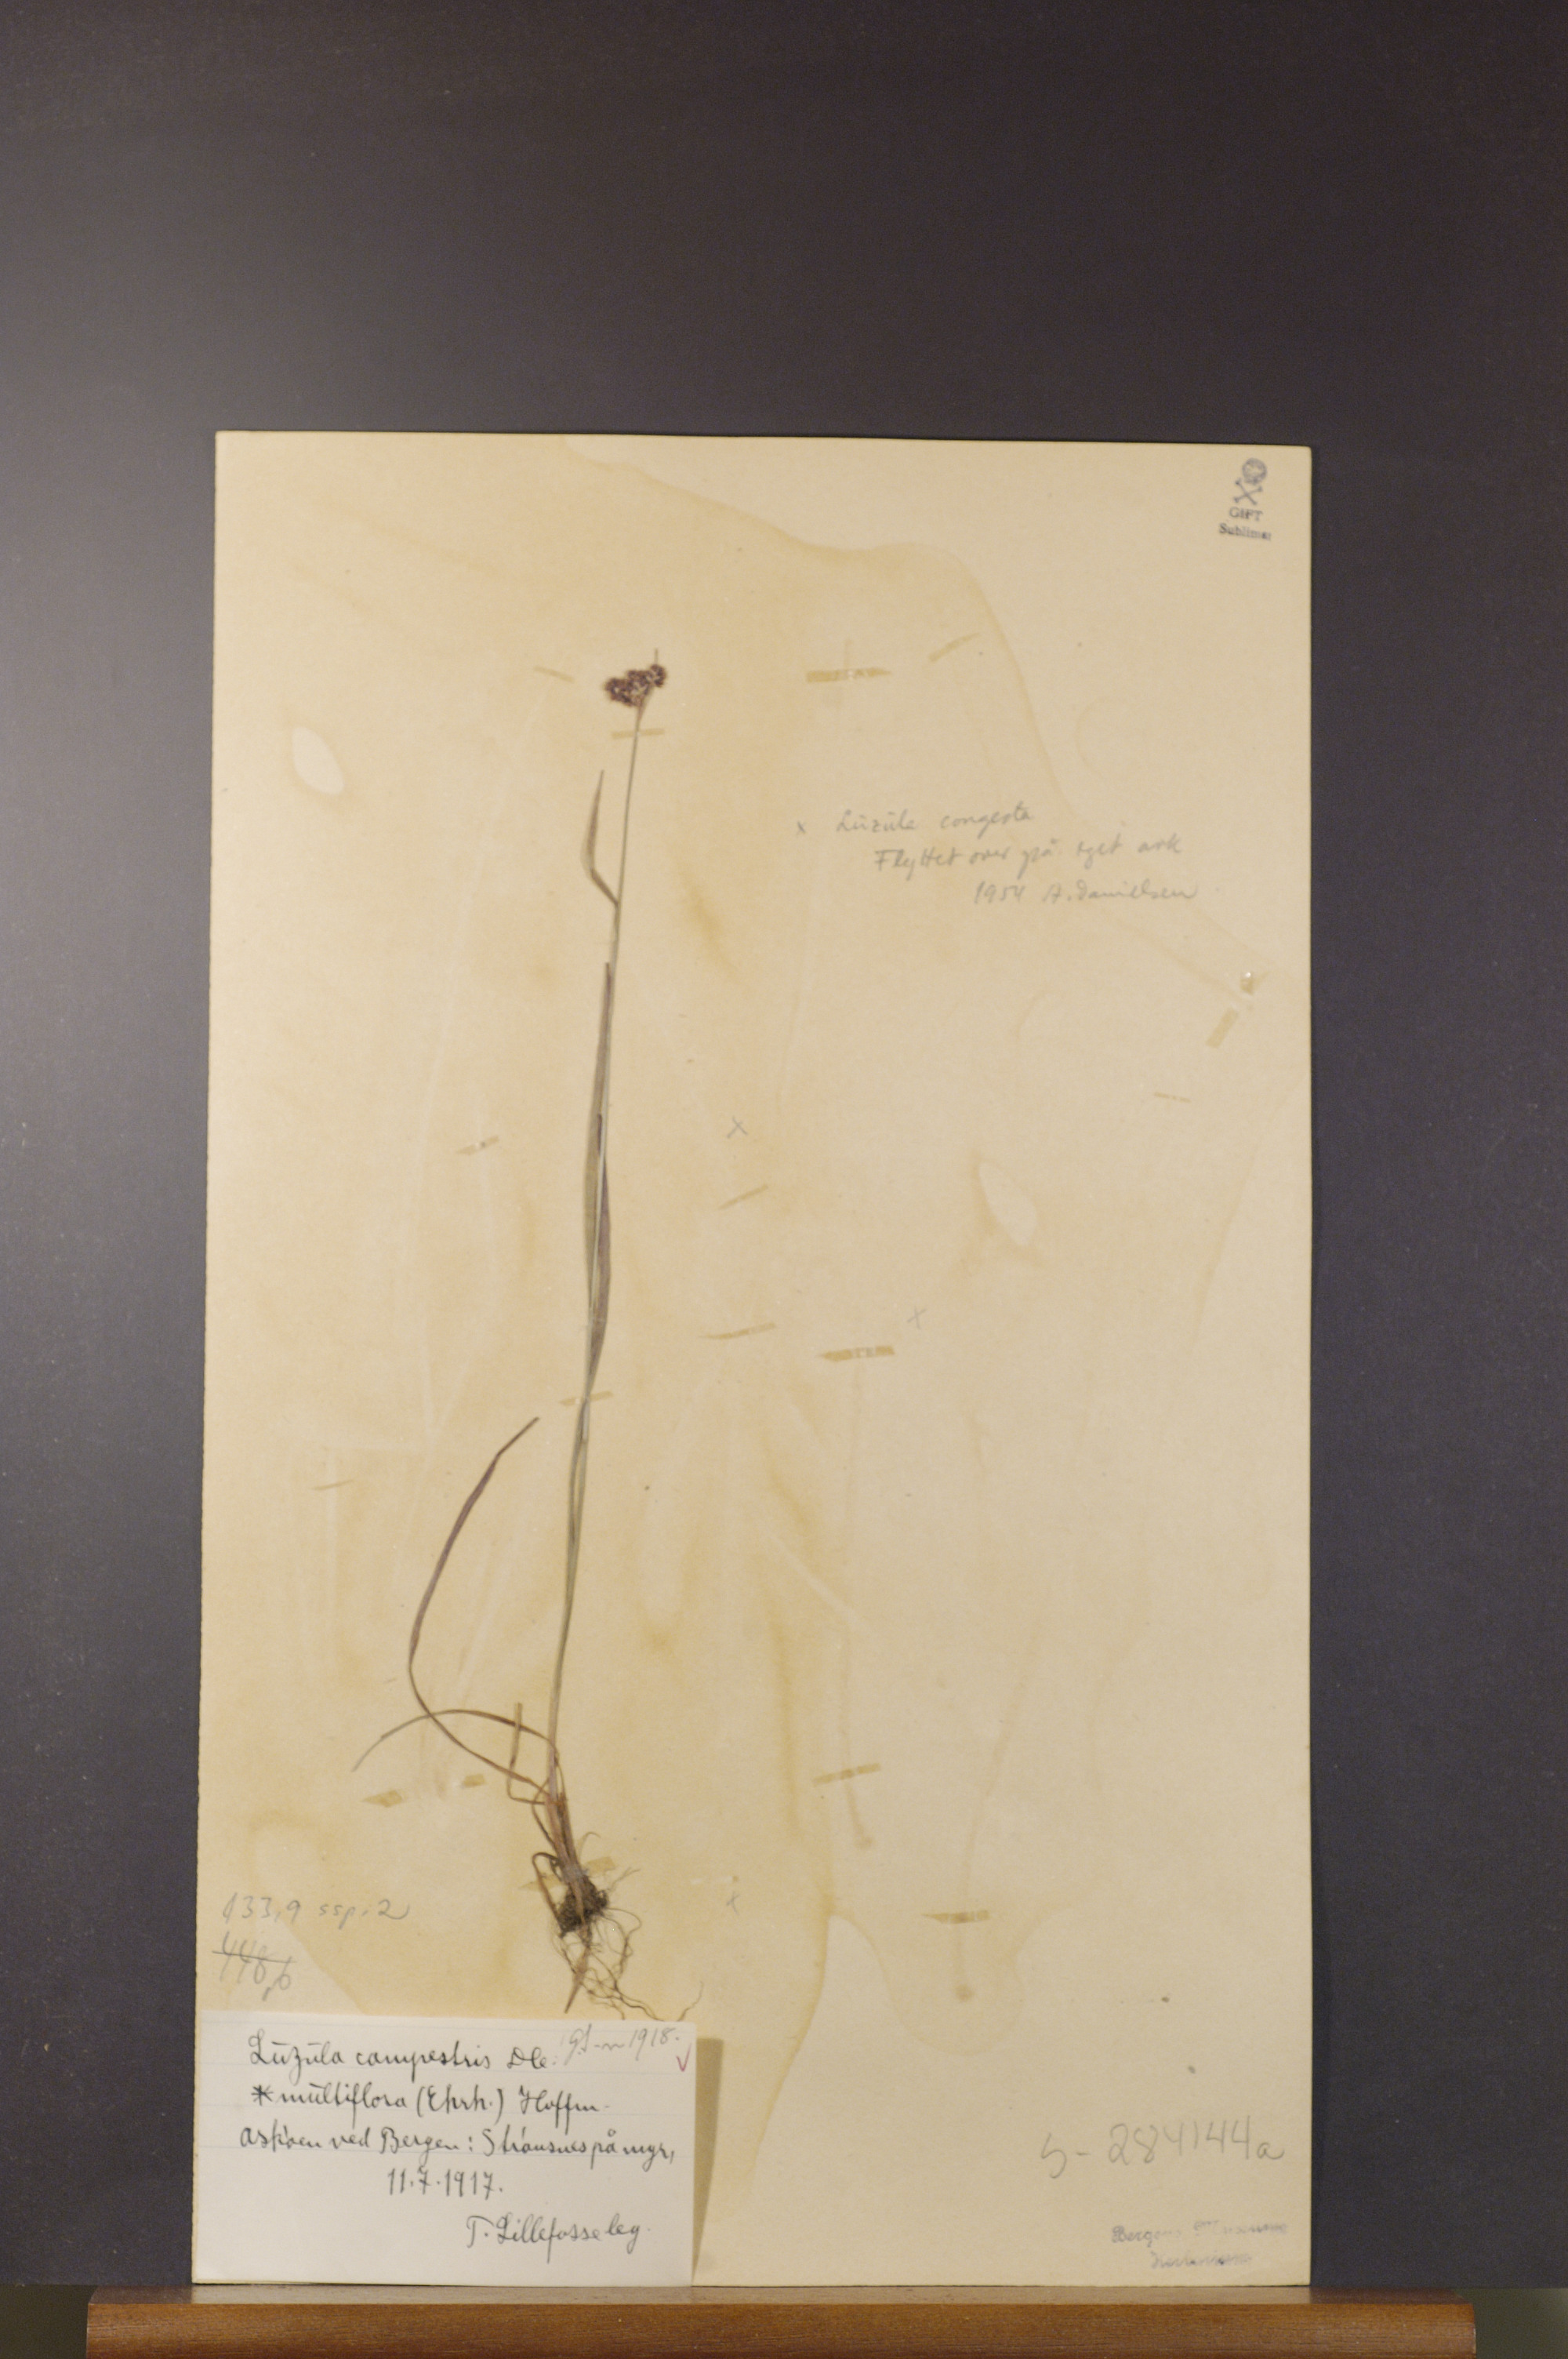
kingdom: Plantae
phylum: Tracheophyta
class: Liliopsida
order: Poales
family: Juncaceae
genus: Luzula
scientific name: Luzula multiflora
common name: Heath wood-rush
